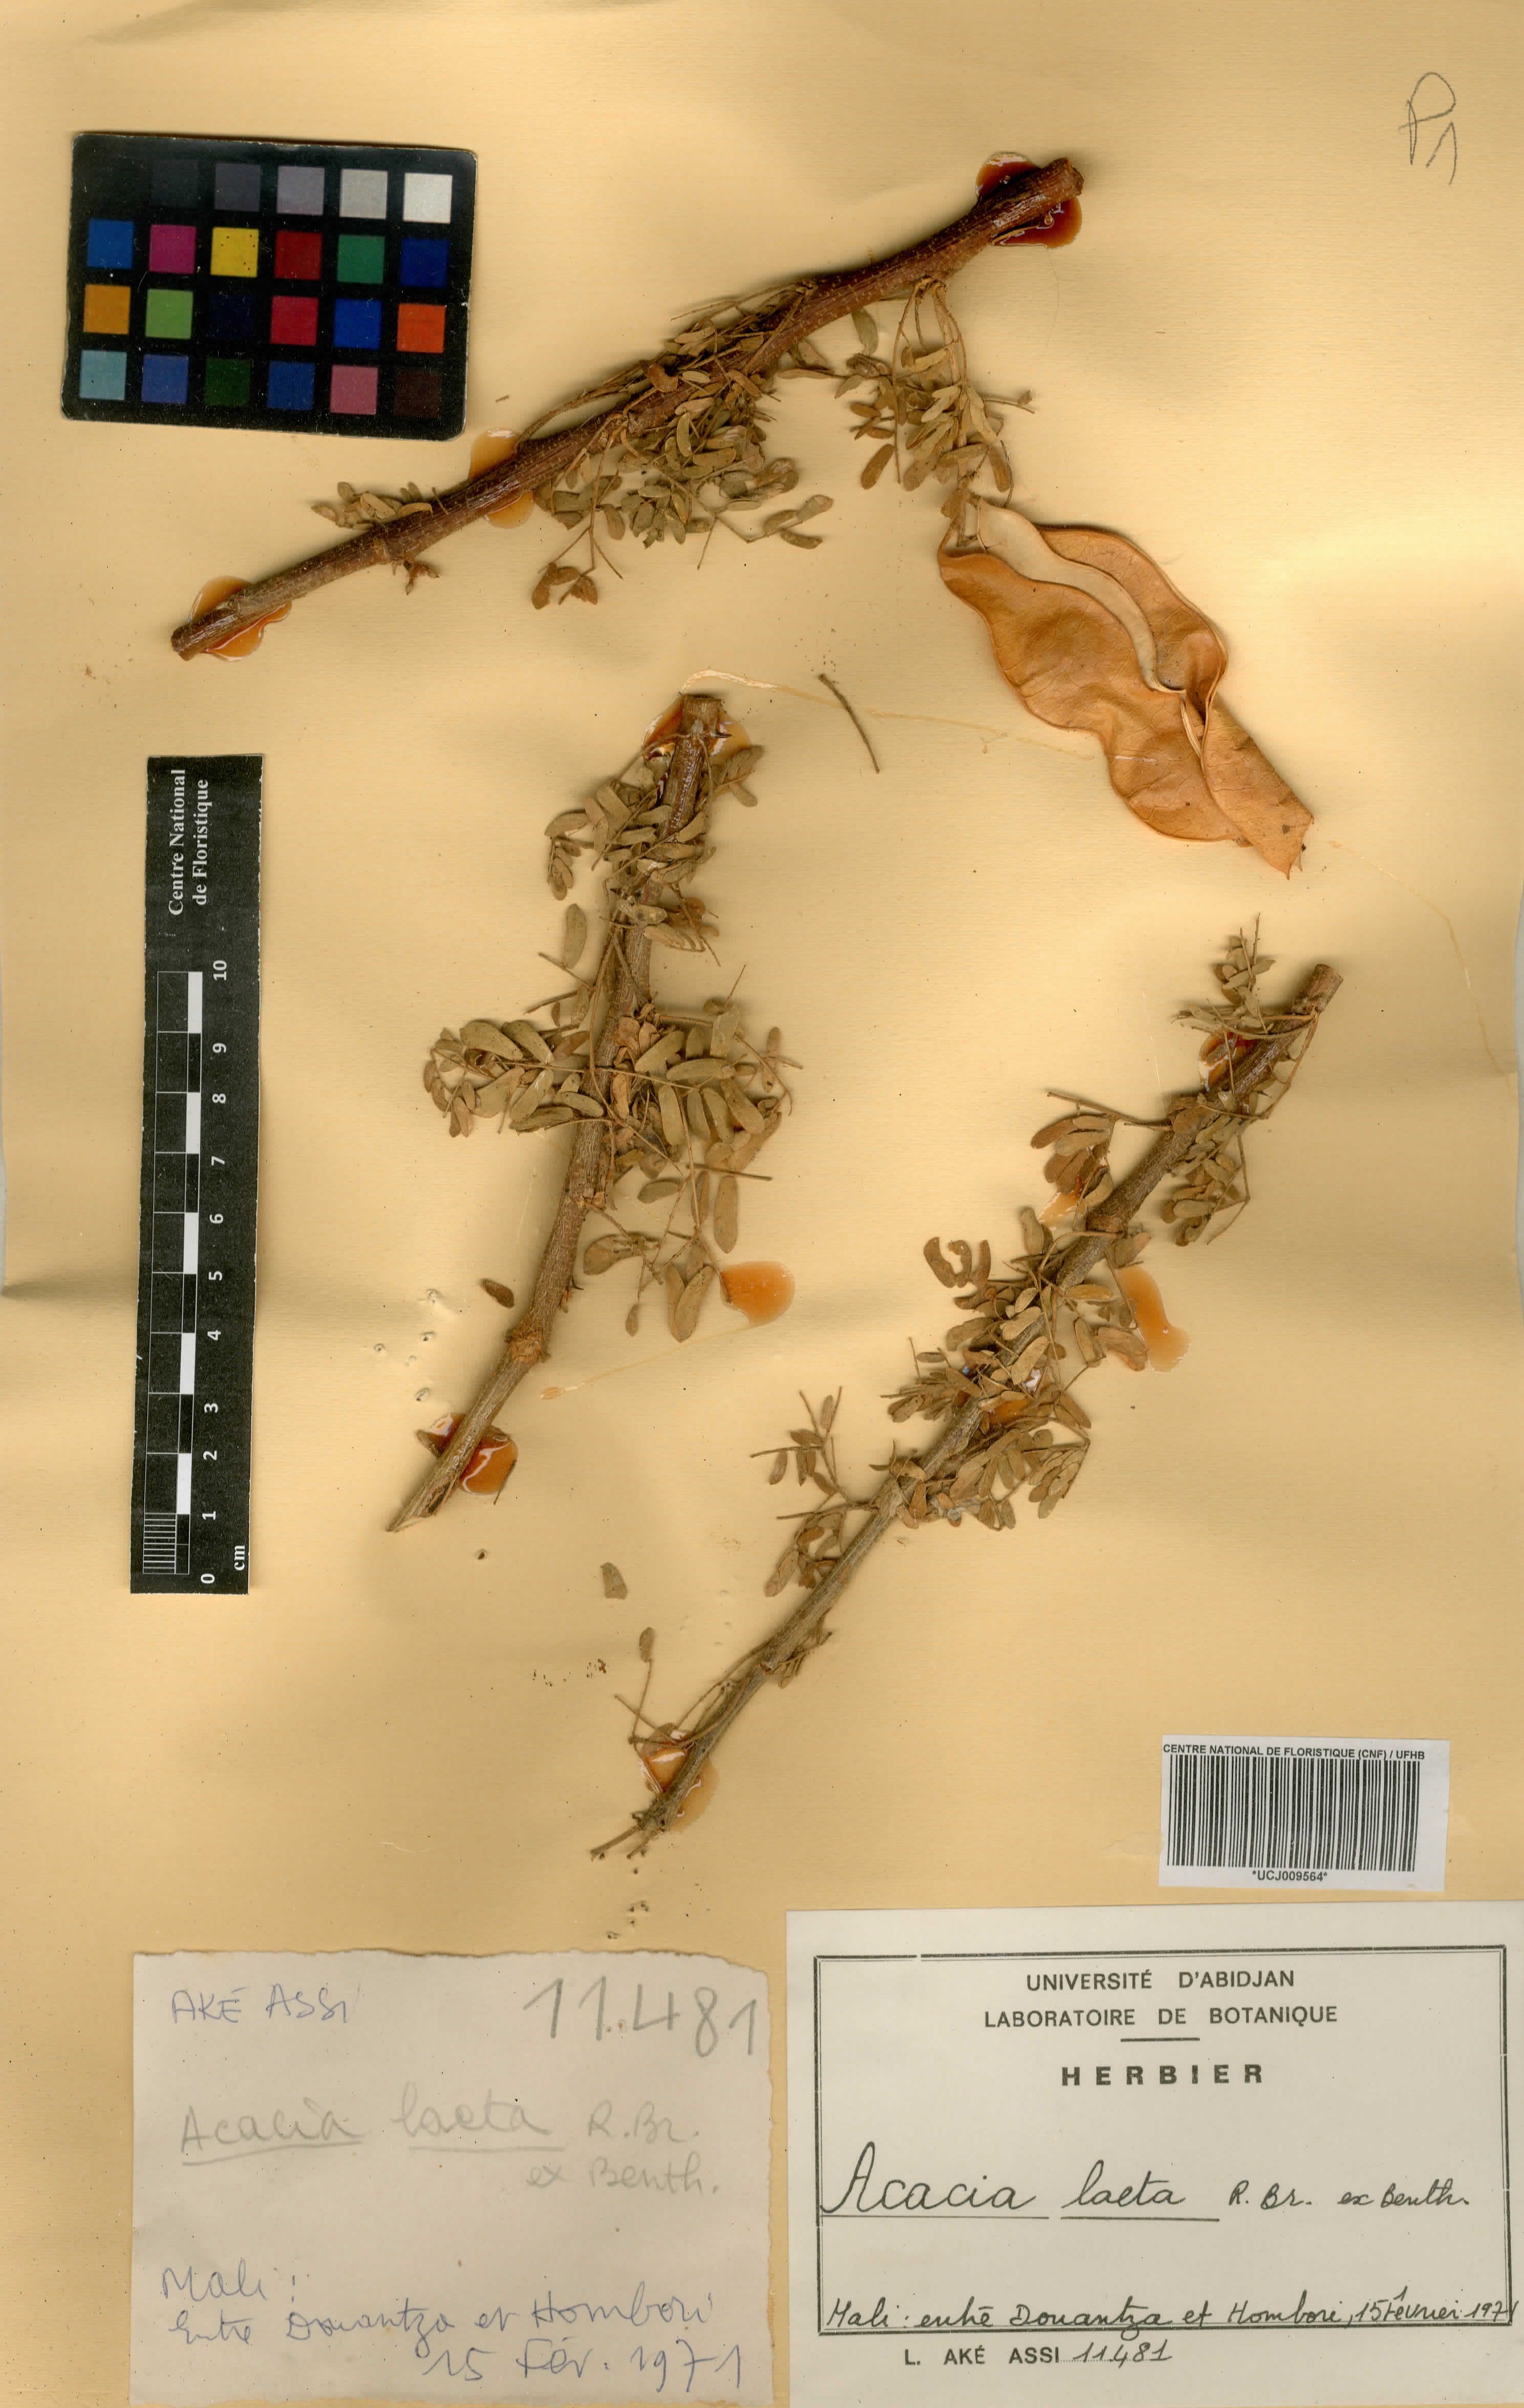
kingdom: Plantae
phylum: Tracheophyta
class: Magnoliopsida
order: Fabales
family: Fabaceae
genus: Senegalia
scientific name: Senegalia laeta
